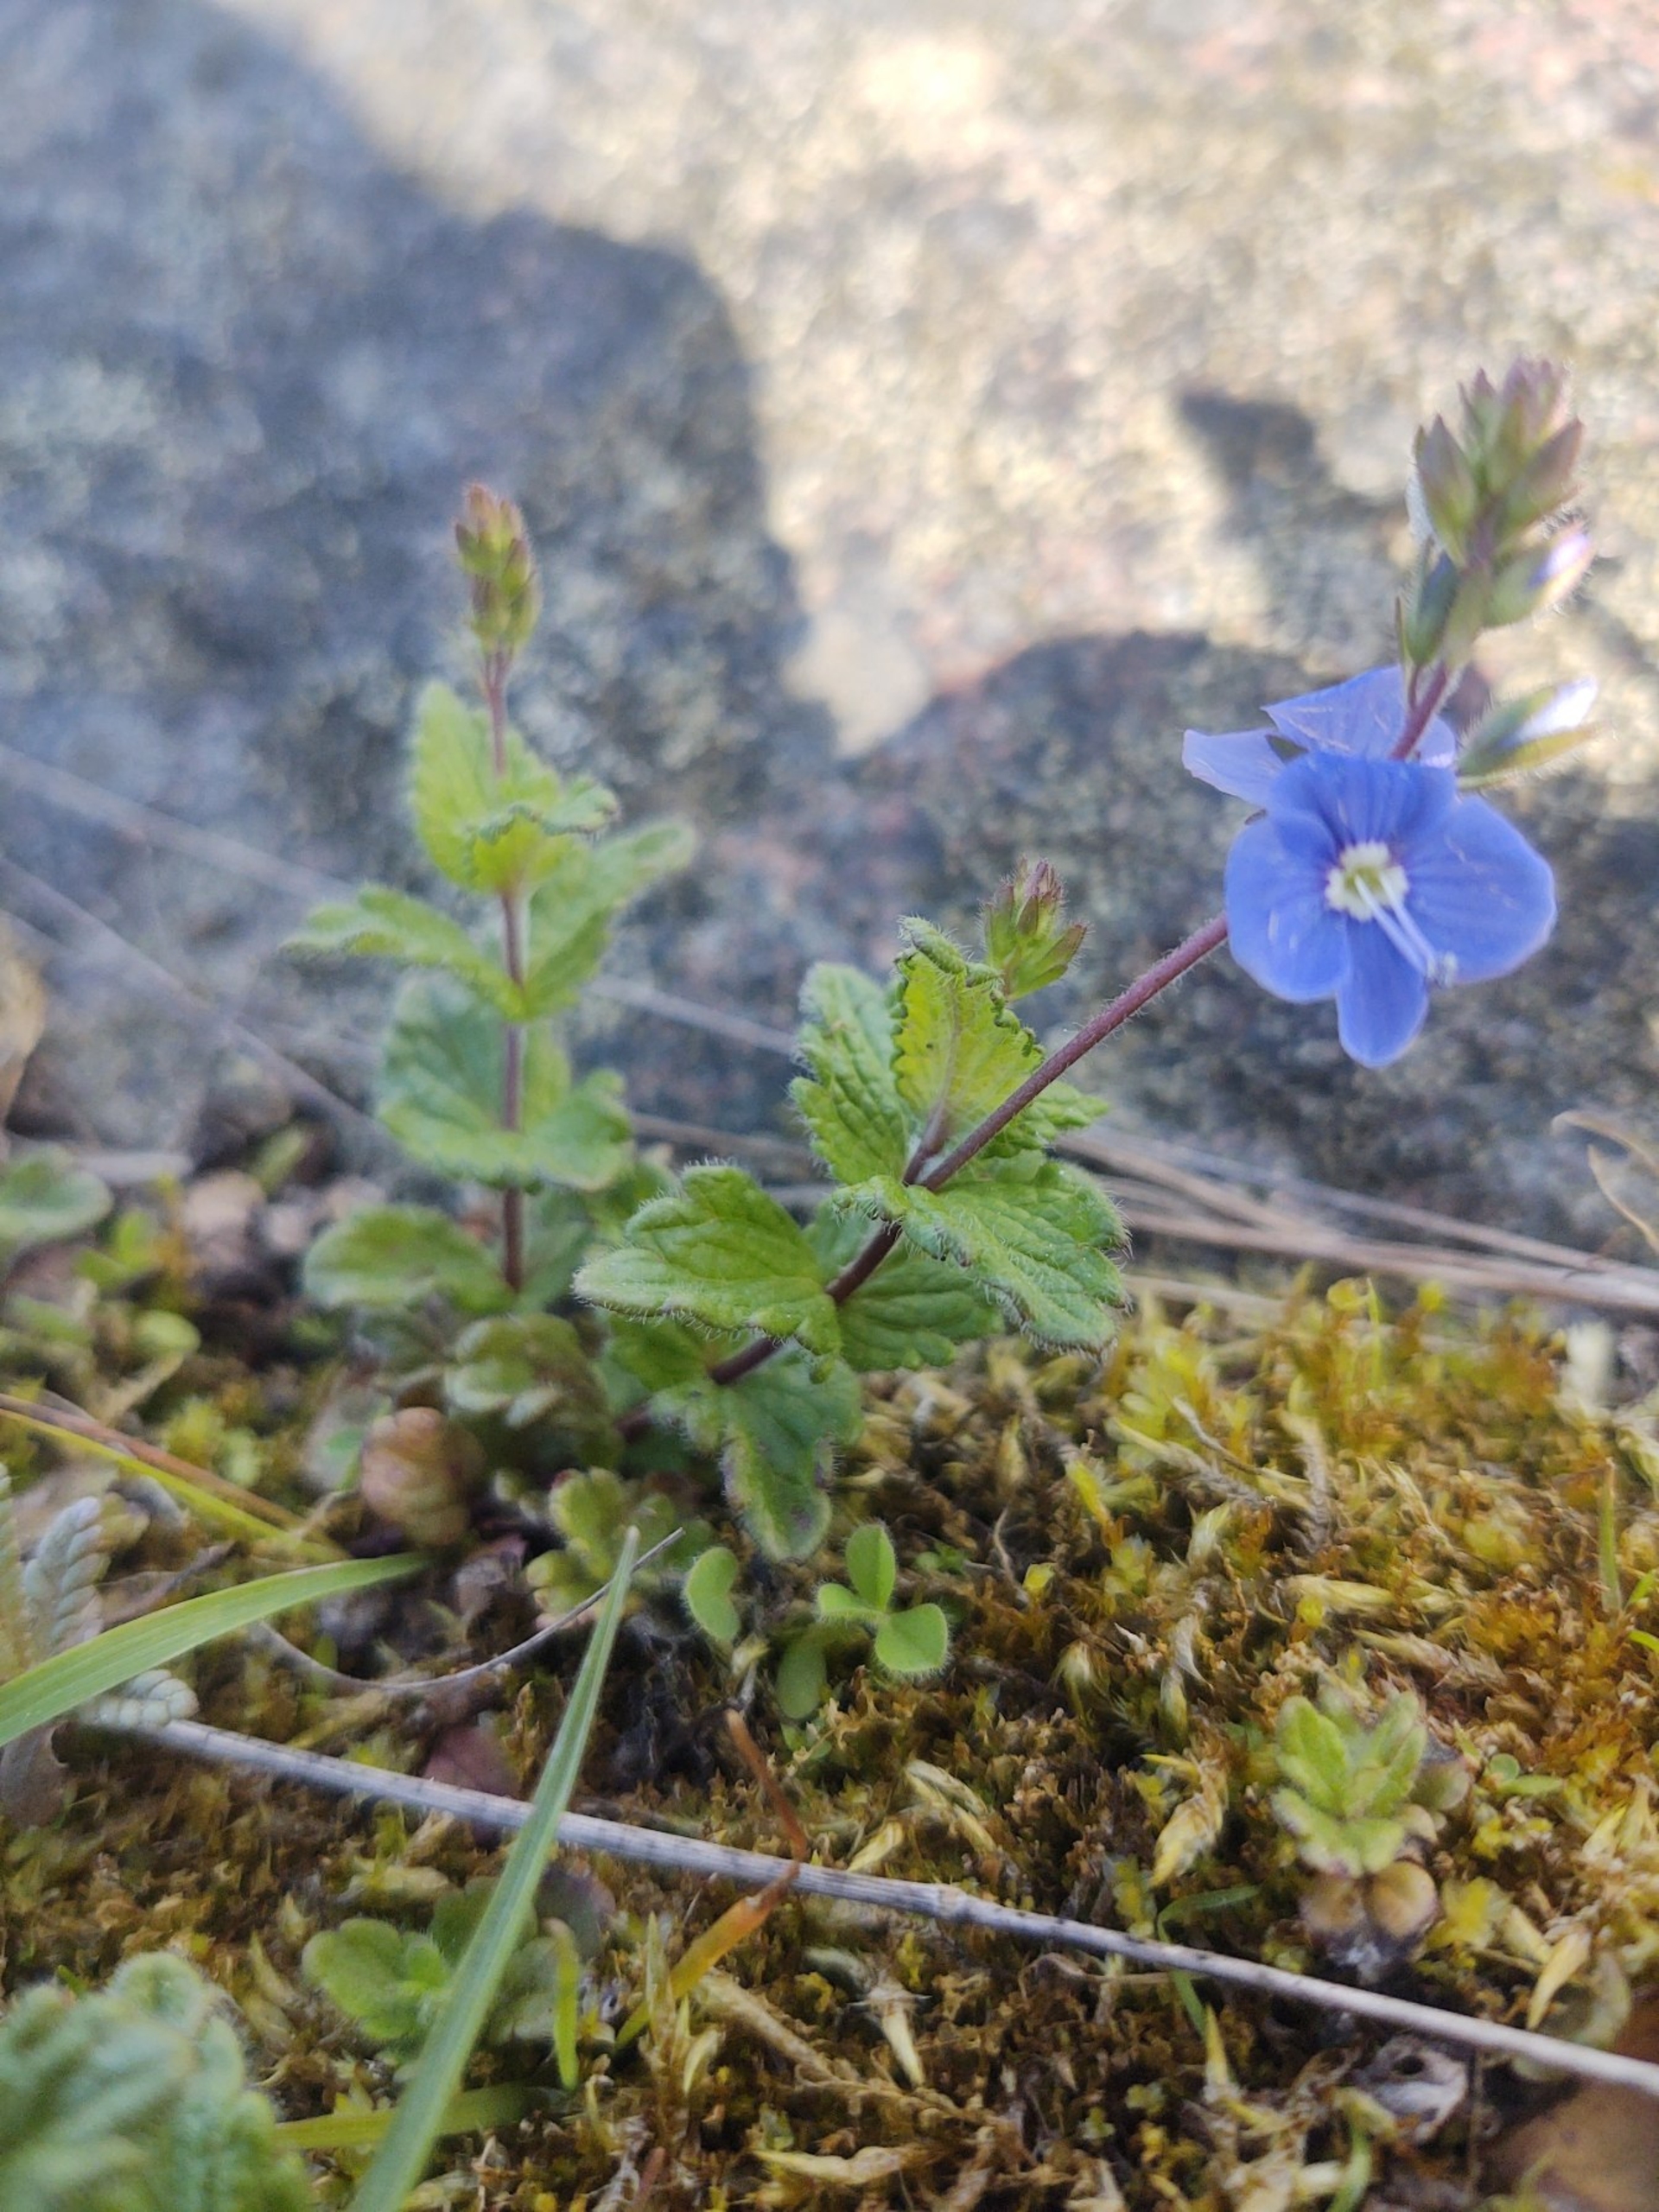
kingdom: Plantae
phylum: Tracheophyta
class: Magnoliopsida
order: Lamiales
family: Plantaginaceae
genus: Veronica
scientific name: Veronica chamaedrys
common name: Tveskægget ærenpris
